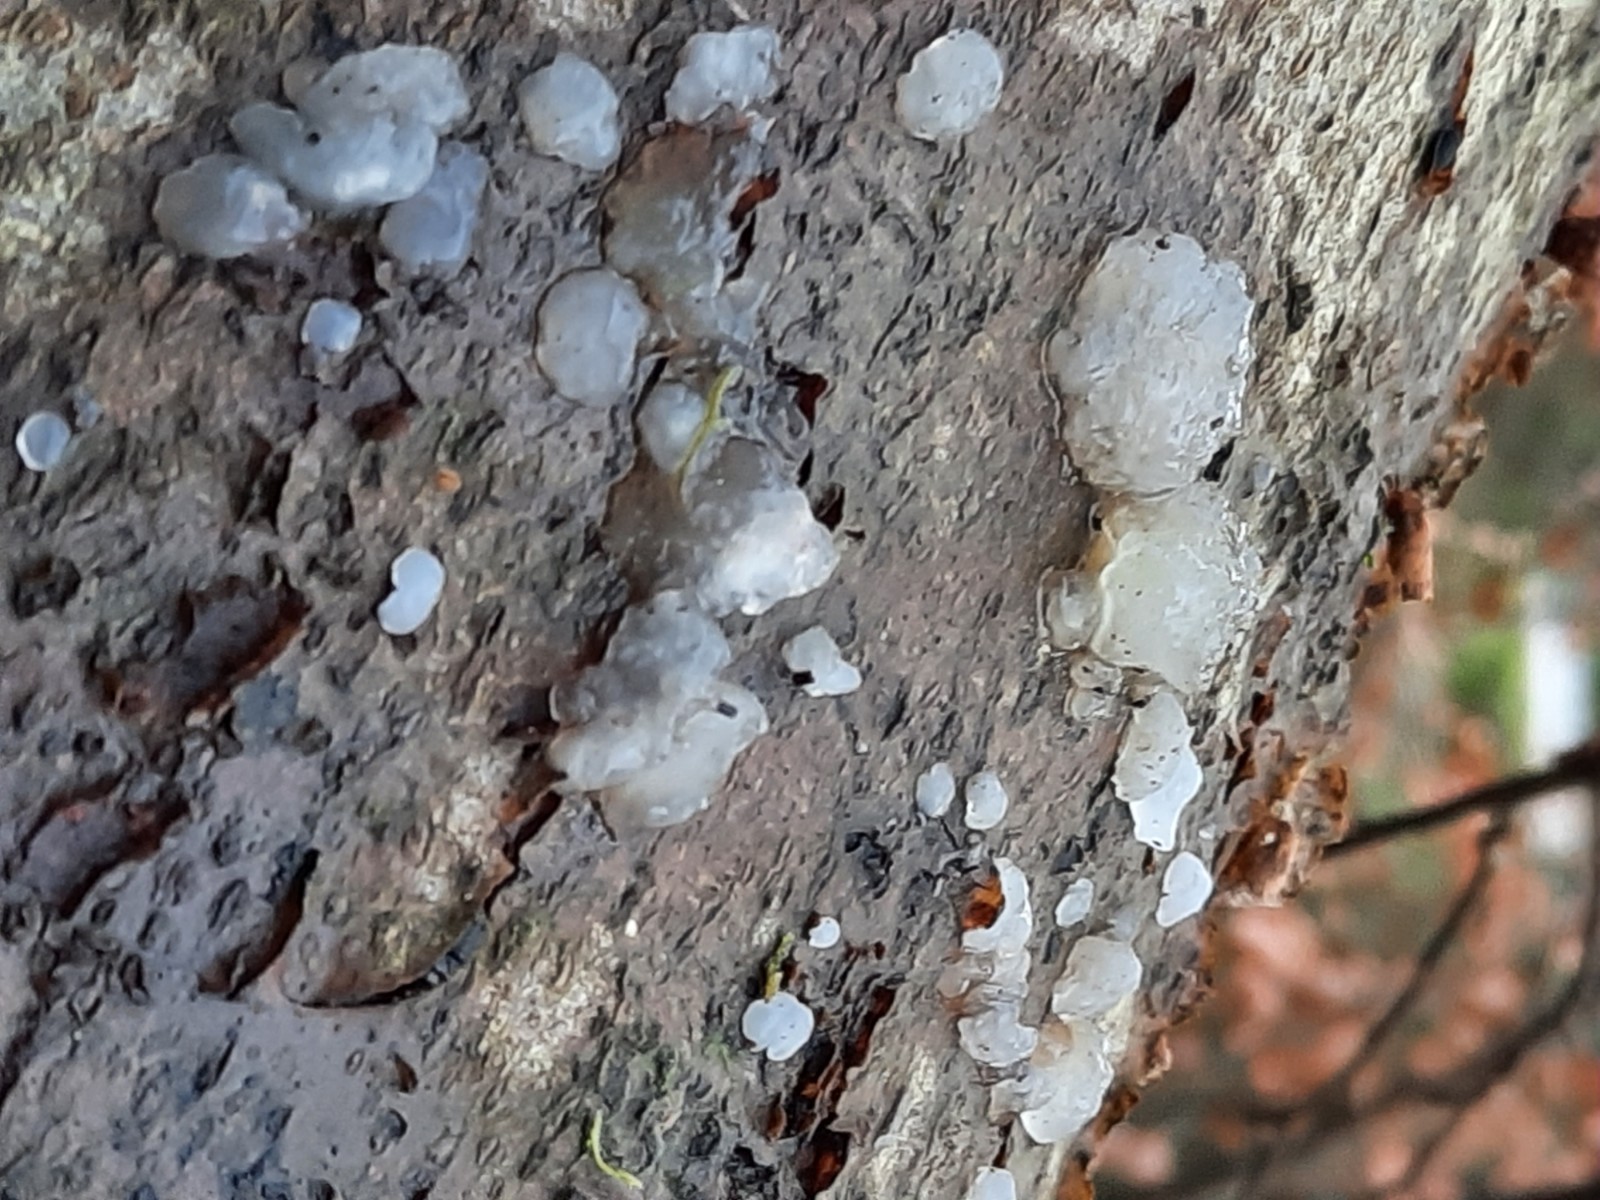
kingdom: Fungi
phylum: Basidiomycota
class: Agaricomycetes
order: Auriculariales
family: Hyaloriaceae
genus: Myxarium
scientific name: Myxarium nucleatum
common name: klar bævretop
